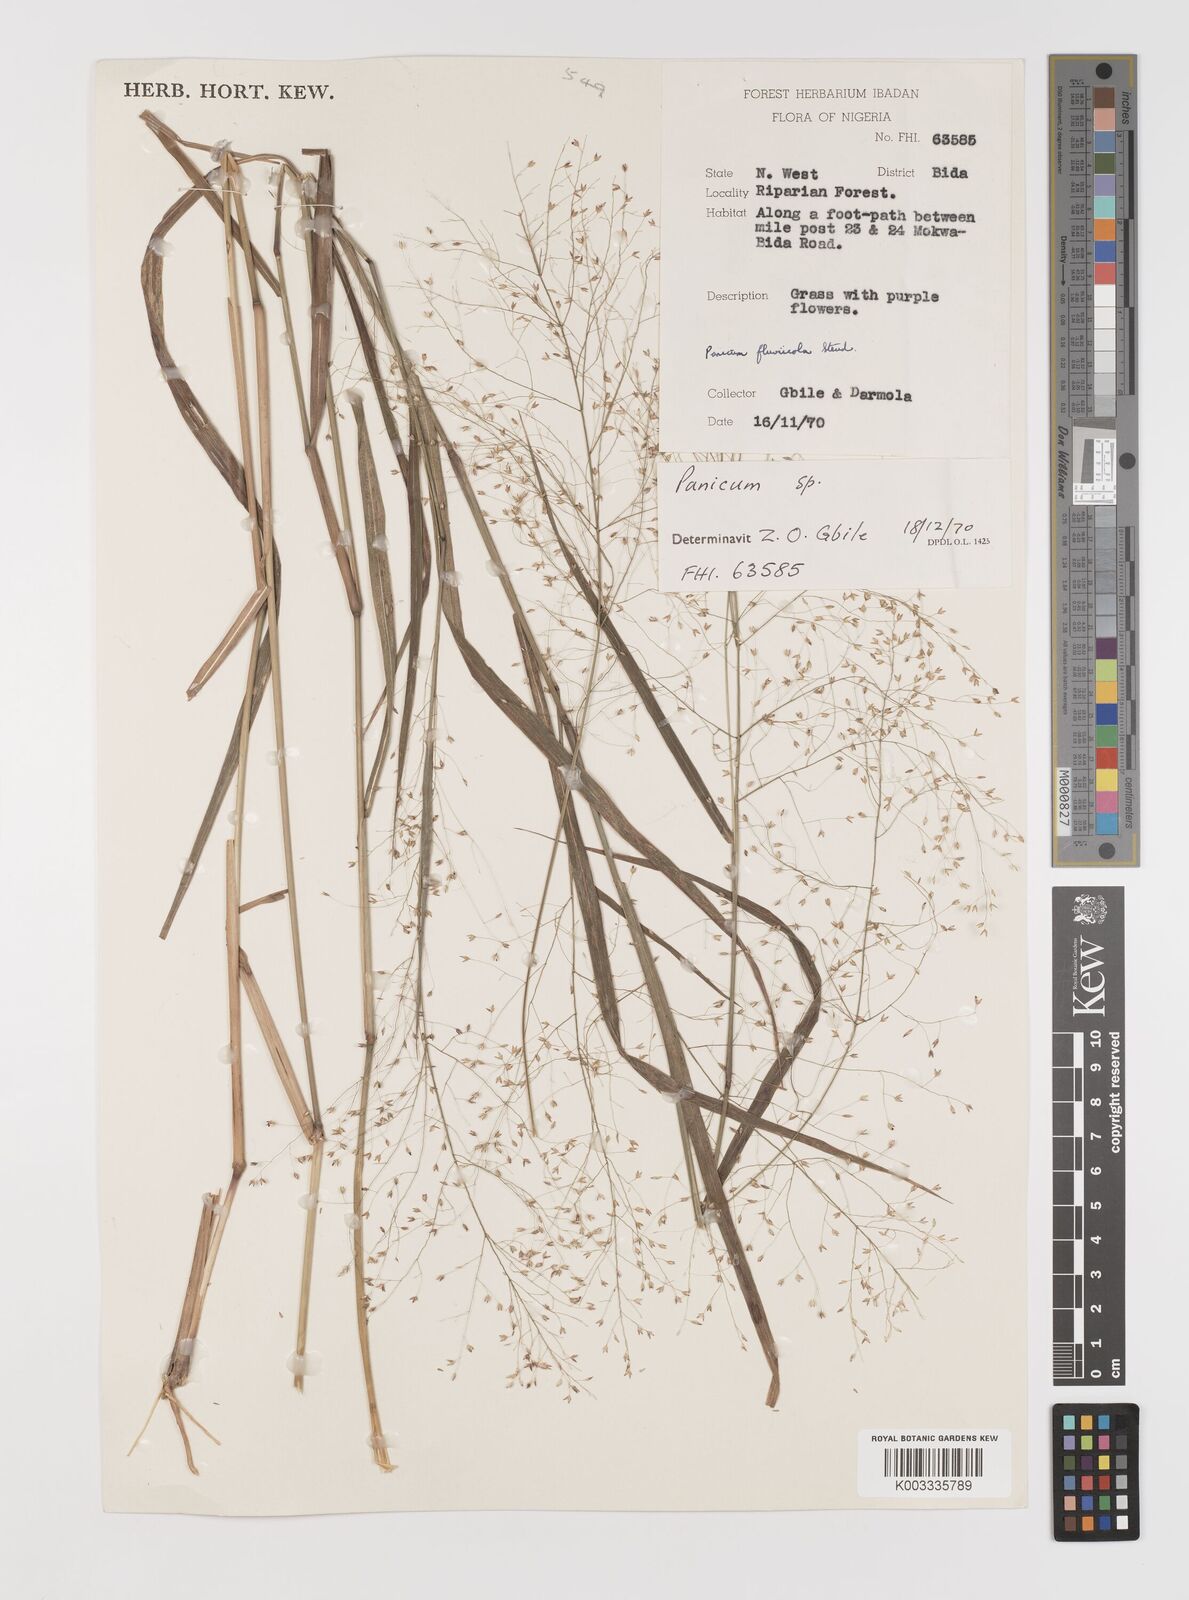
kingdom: Plantae
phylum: Tracheophyta
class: Liliopsida
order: Poales
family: Poaceae
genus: Panicum
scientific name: Panicum fluviicola
